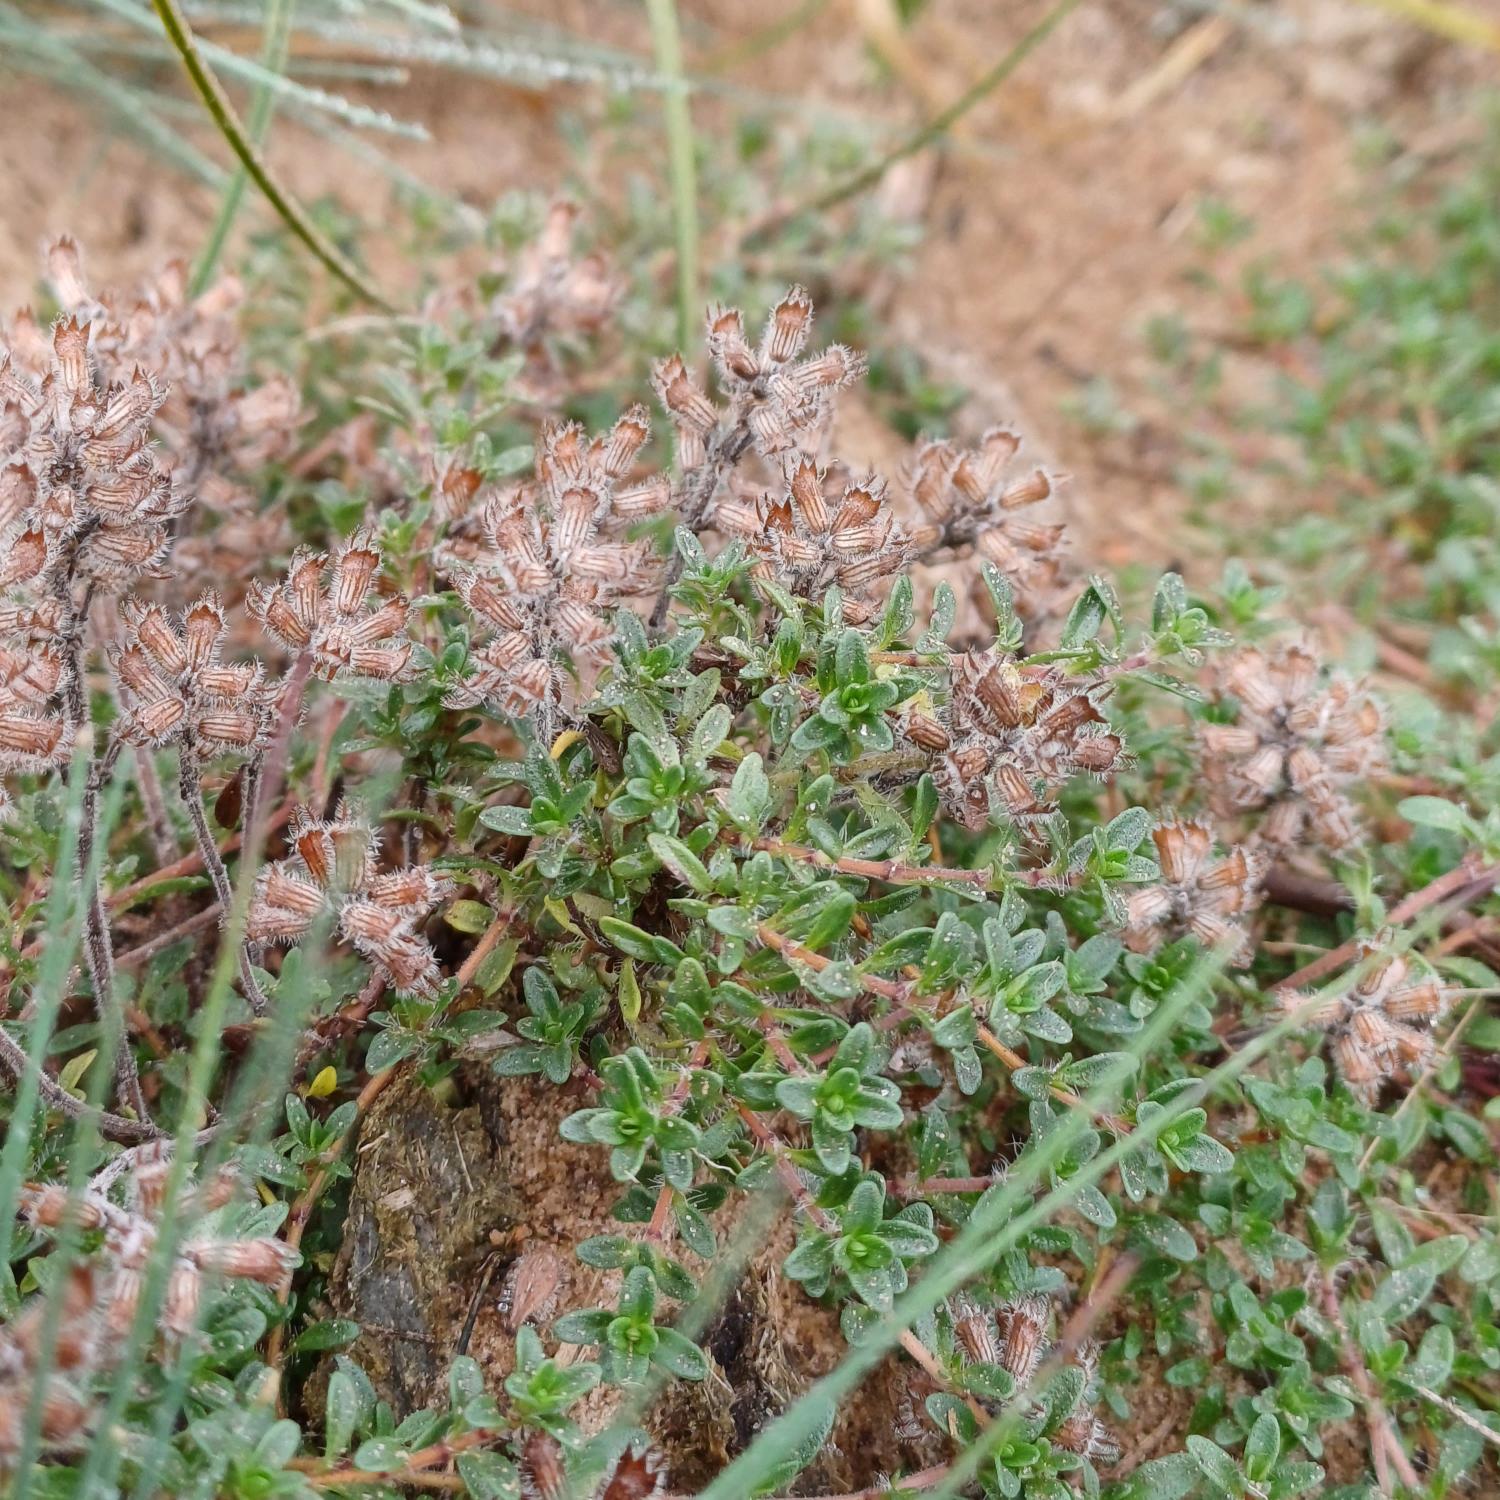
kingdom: Plantae
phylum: Tracheophyta
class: Magnoliopsida
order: Lamiales
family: Lamiaceae
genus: Thymus
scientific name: Thymus serpyllum
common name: Smalbladet timian
